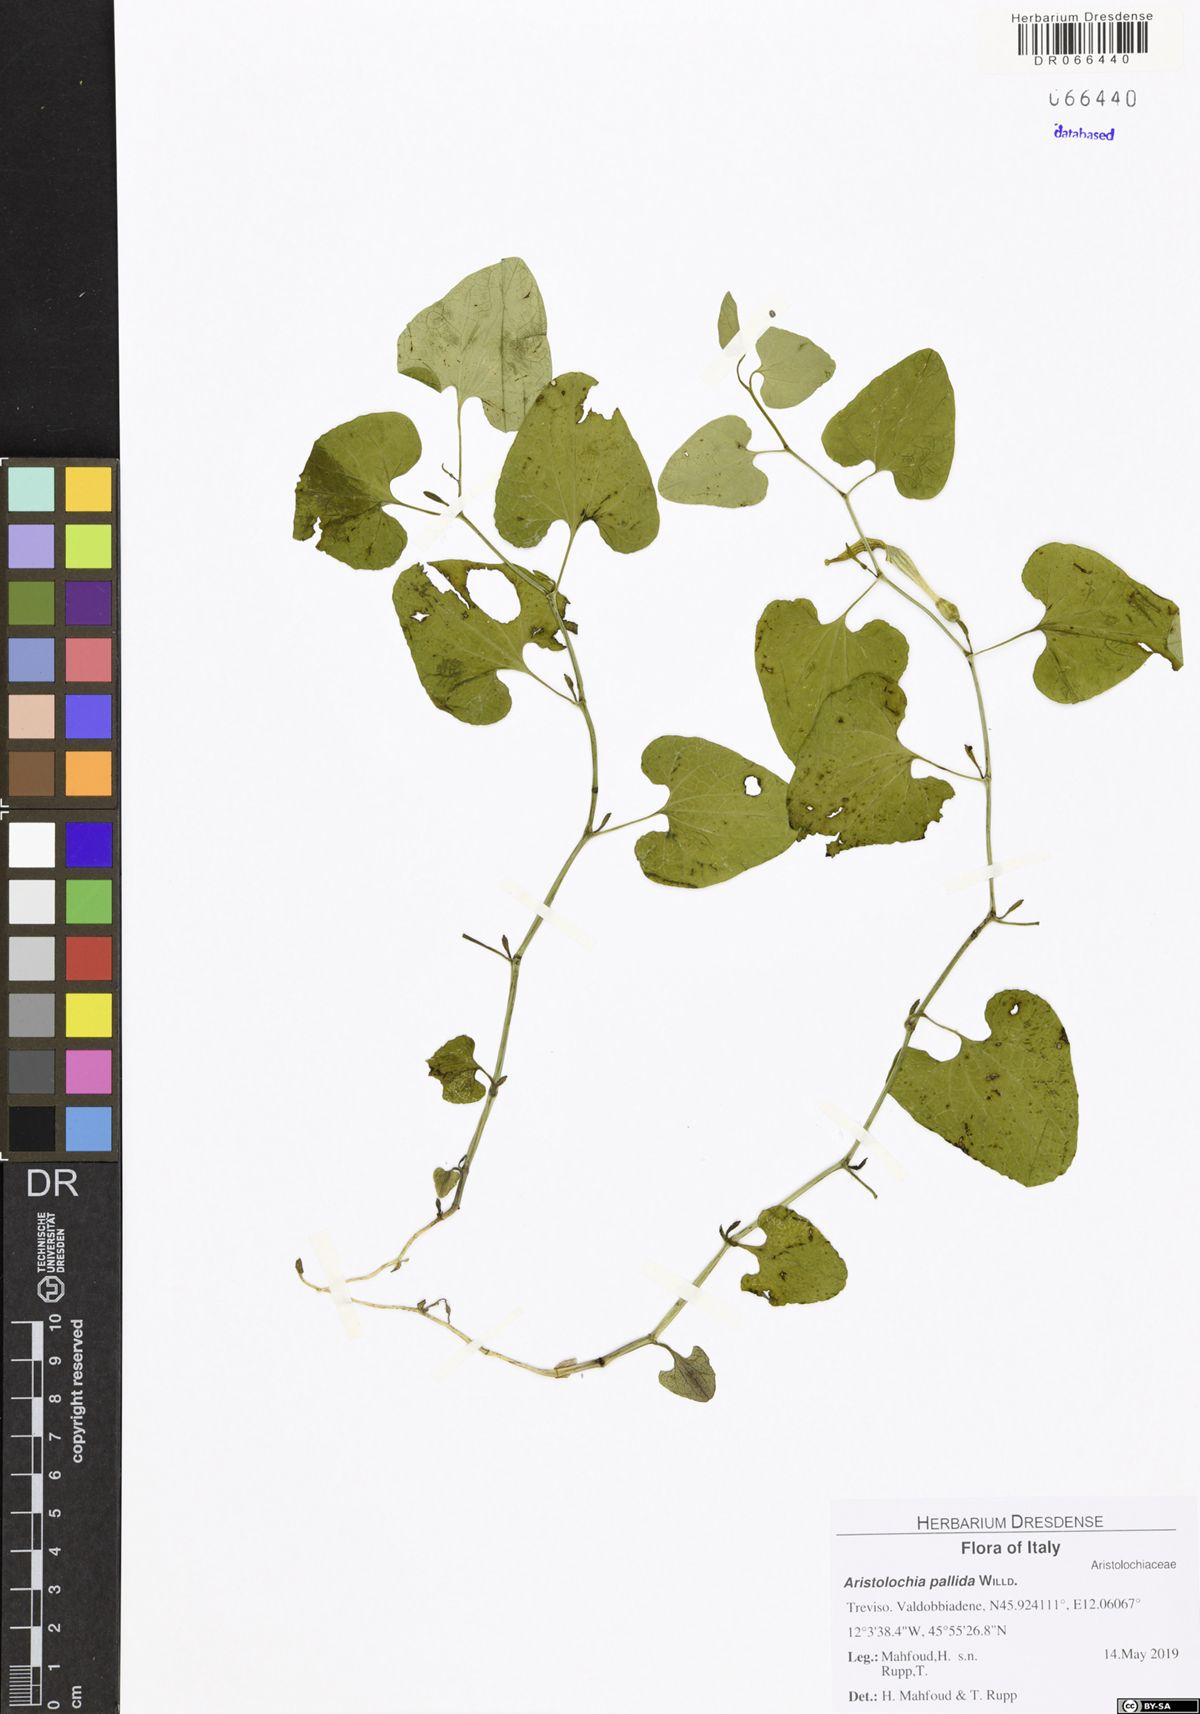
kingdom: Plantae
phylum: Tracheophyta
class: Magnoliopsida
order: Piperales
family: Aristolochiaceae
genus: Aristolochia
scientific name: Aristolochia pallida
